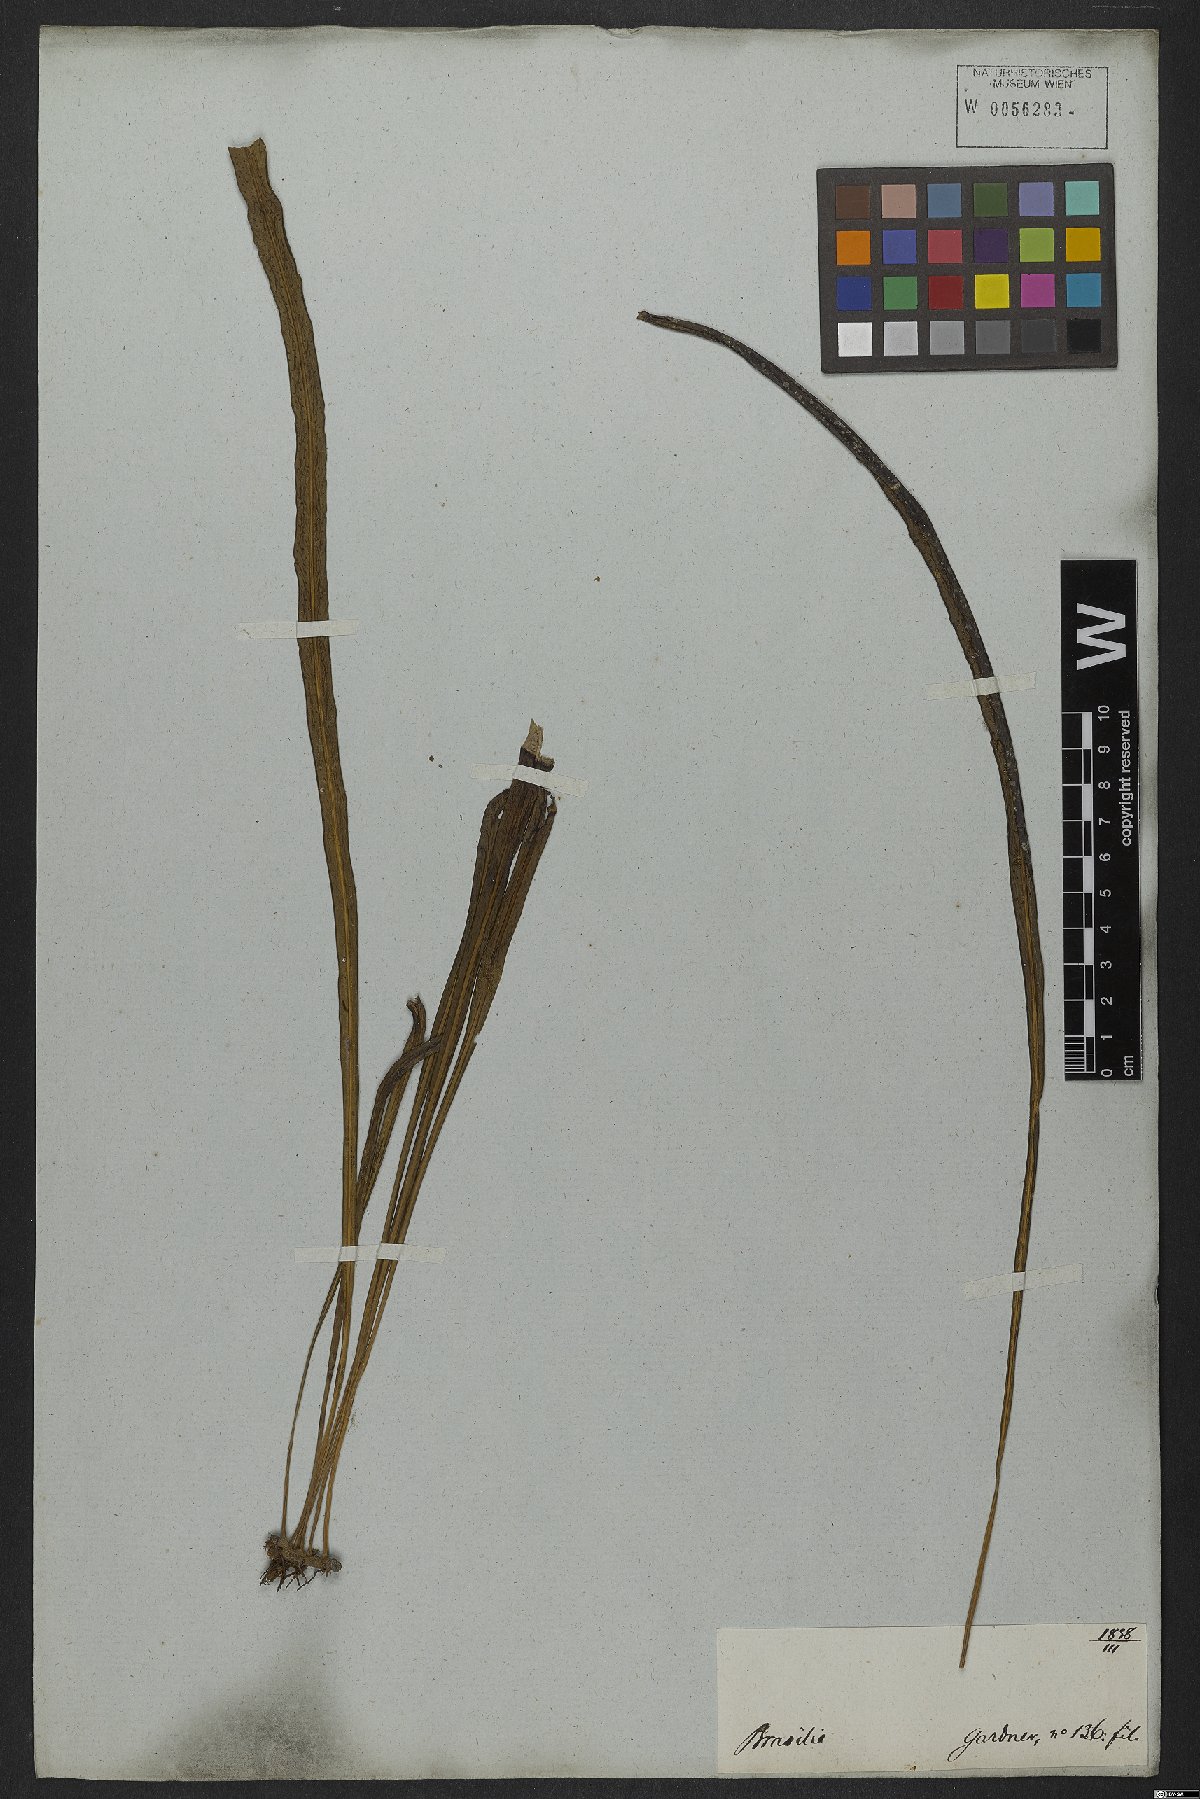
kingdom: Plantae
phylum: Tracheophyta
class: Polypodiopsida
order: Polypodiales
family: Polypodiaceae
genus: Campyloneurum
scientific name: Campyloneurum angustifolium
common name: Narrow-leaf strap fern
